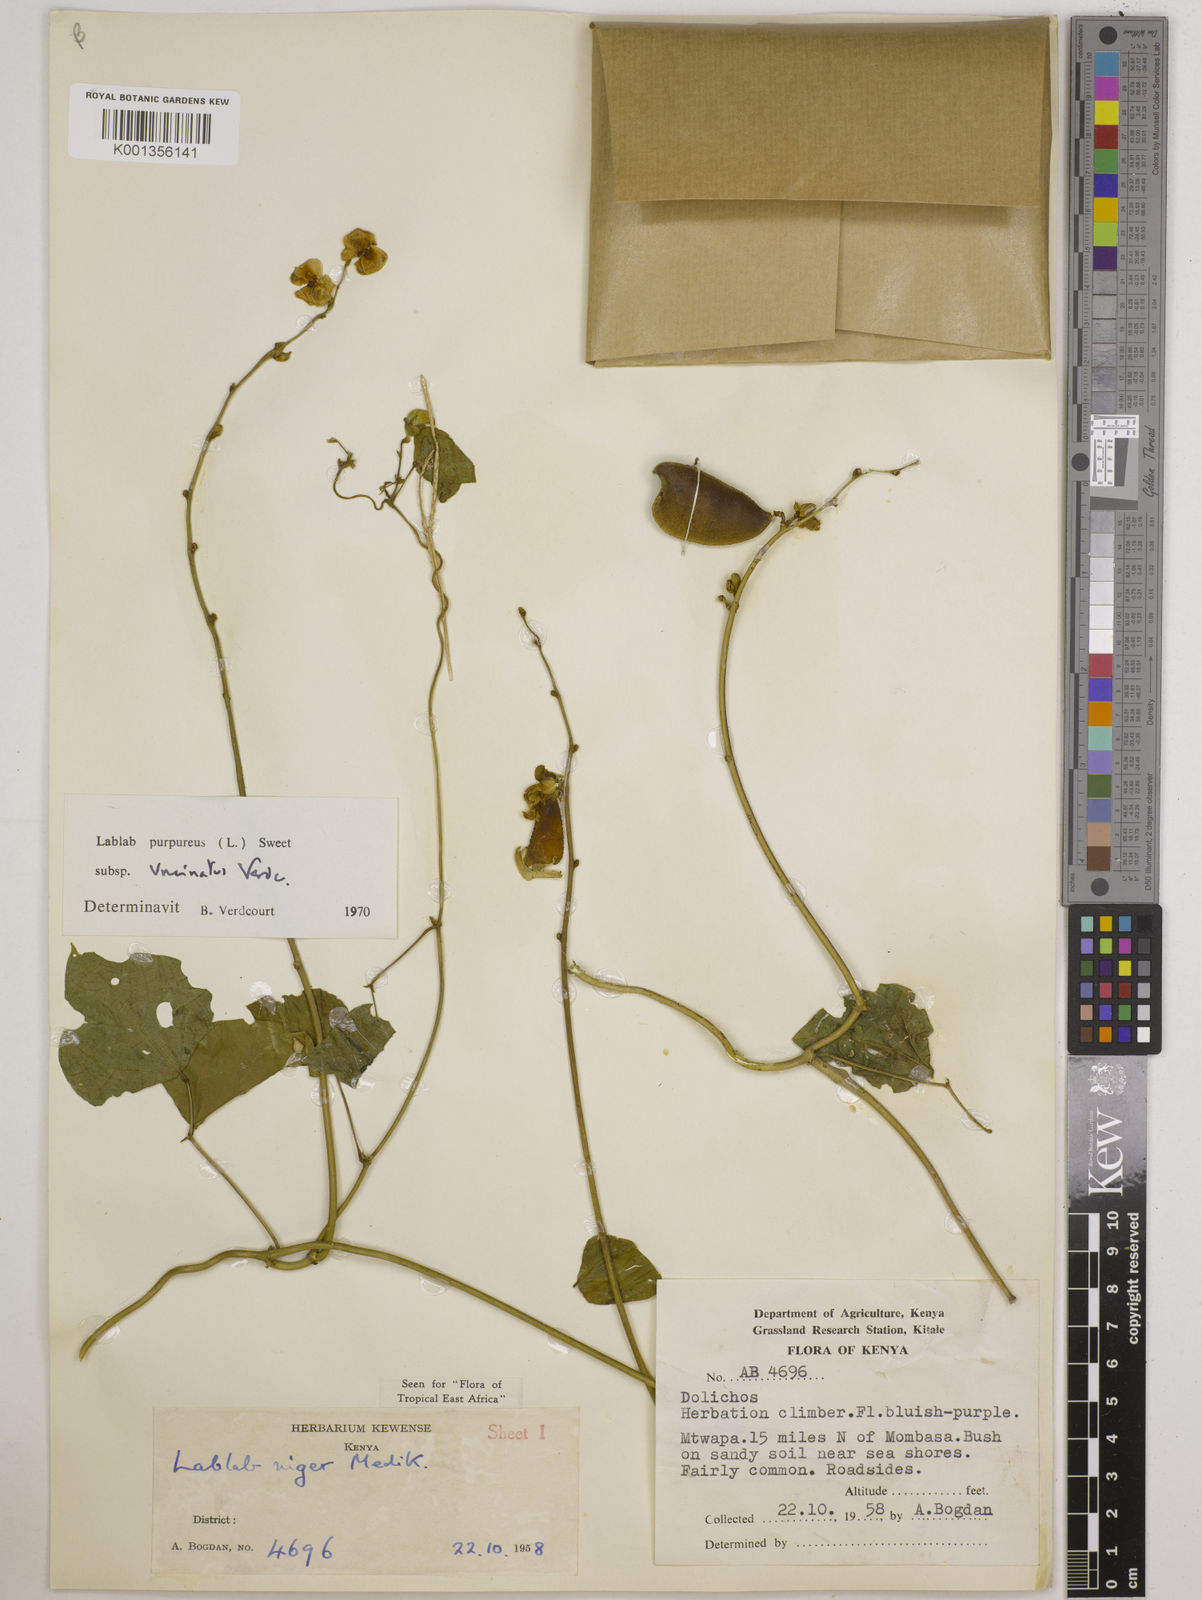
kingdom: Plantae
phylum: Tracheophyta
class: Magnoliopsida
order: Fabales
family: Fabaceae
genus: Lablab
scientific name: Lablab purpureus
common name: Lablab-bean
